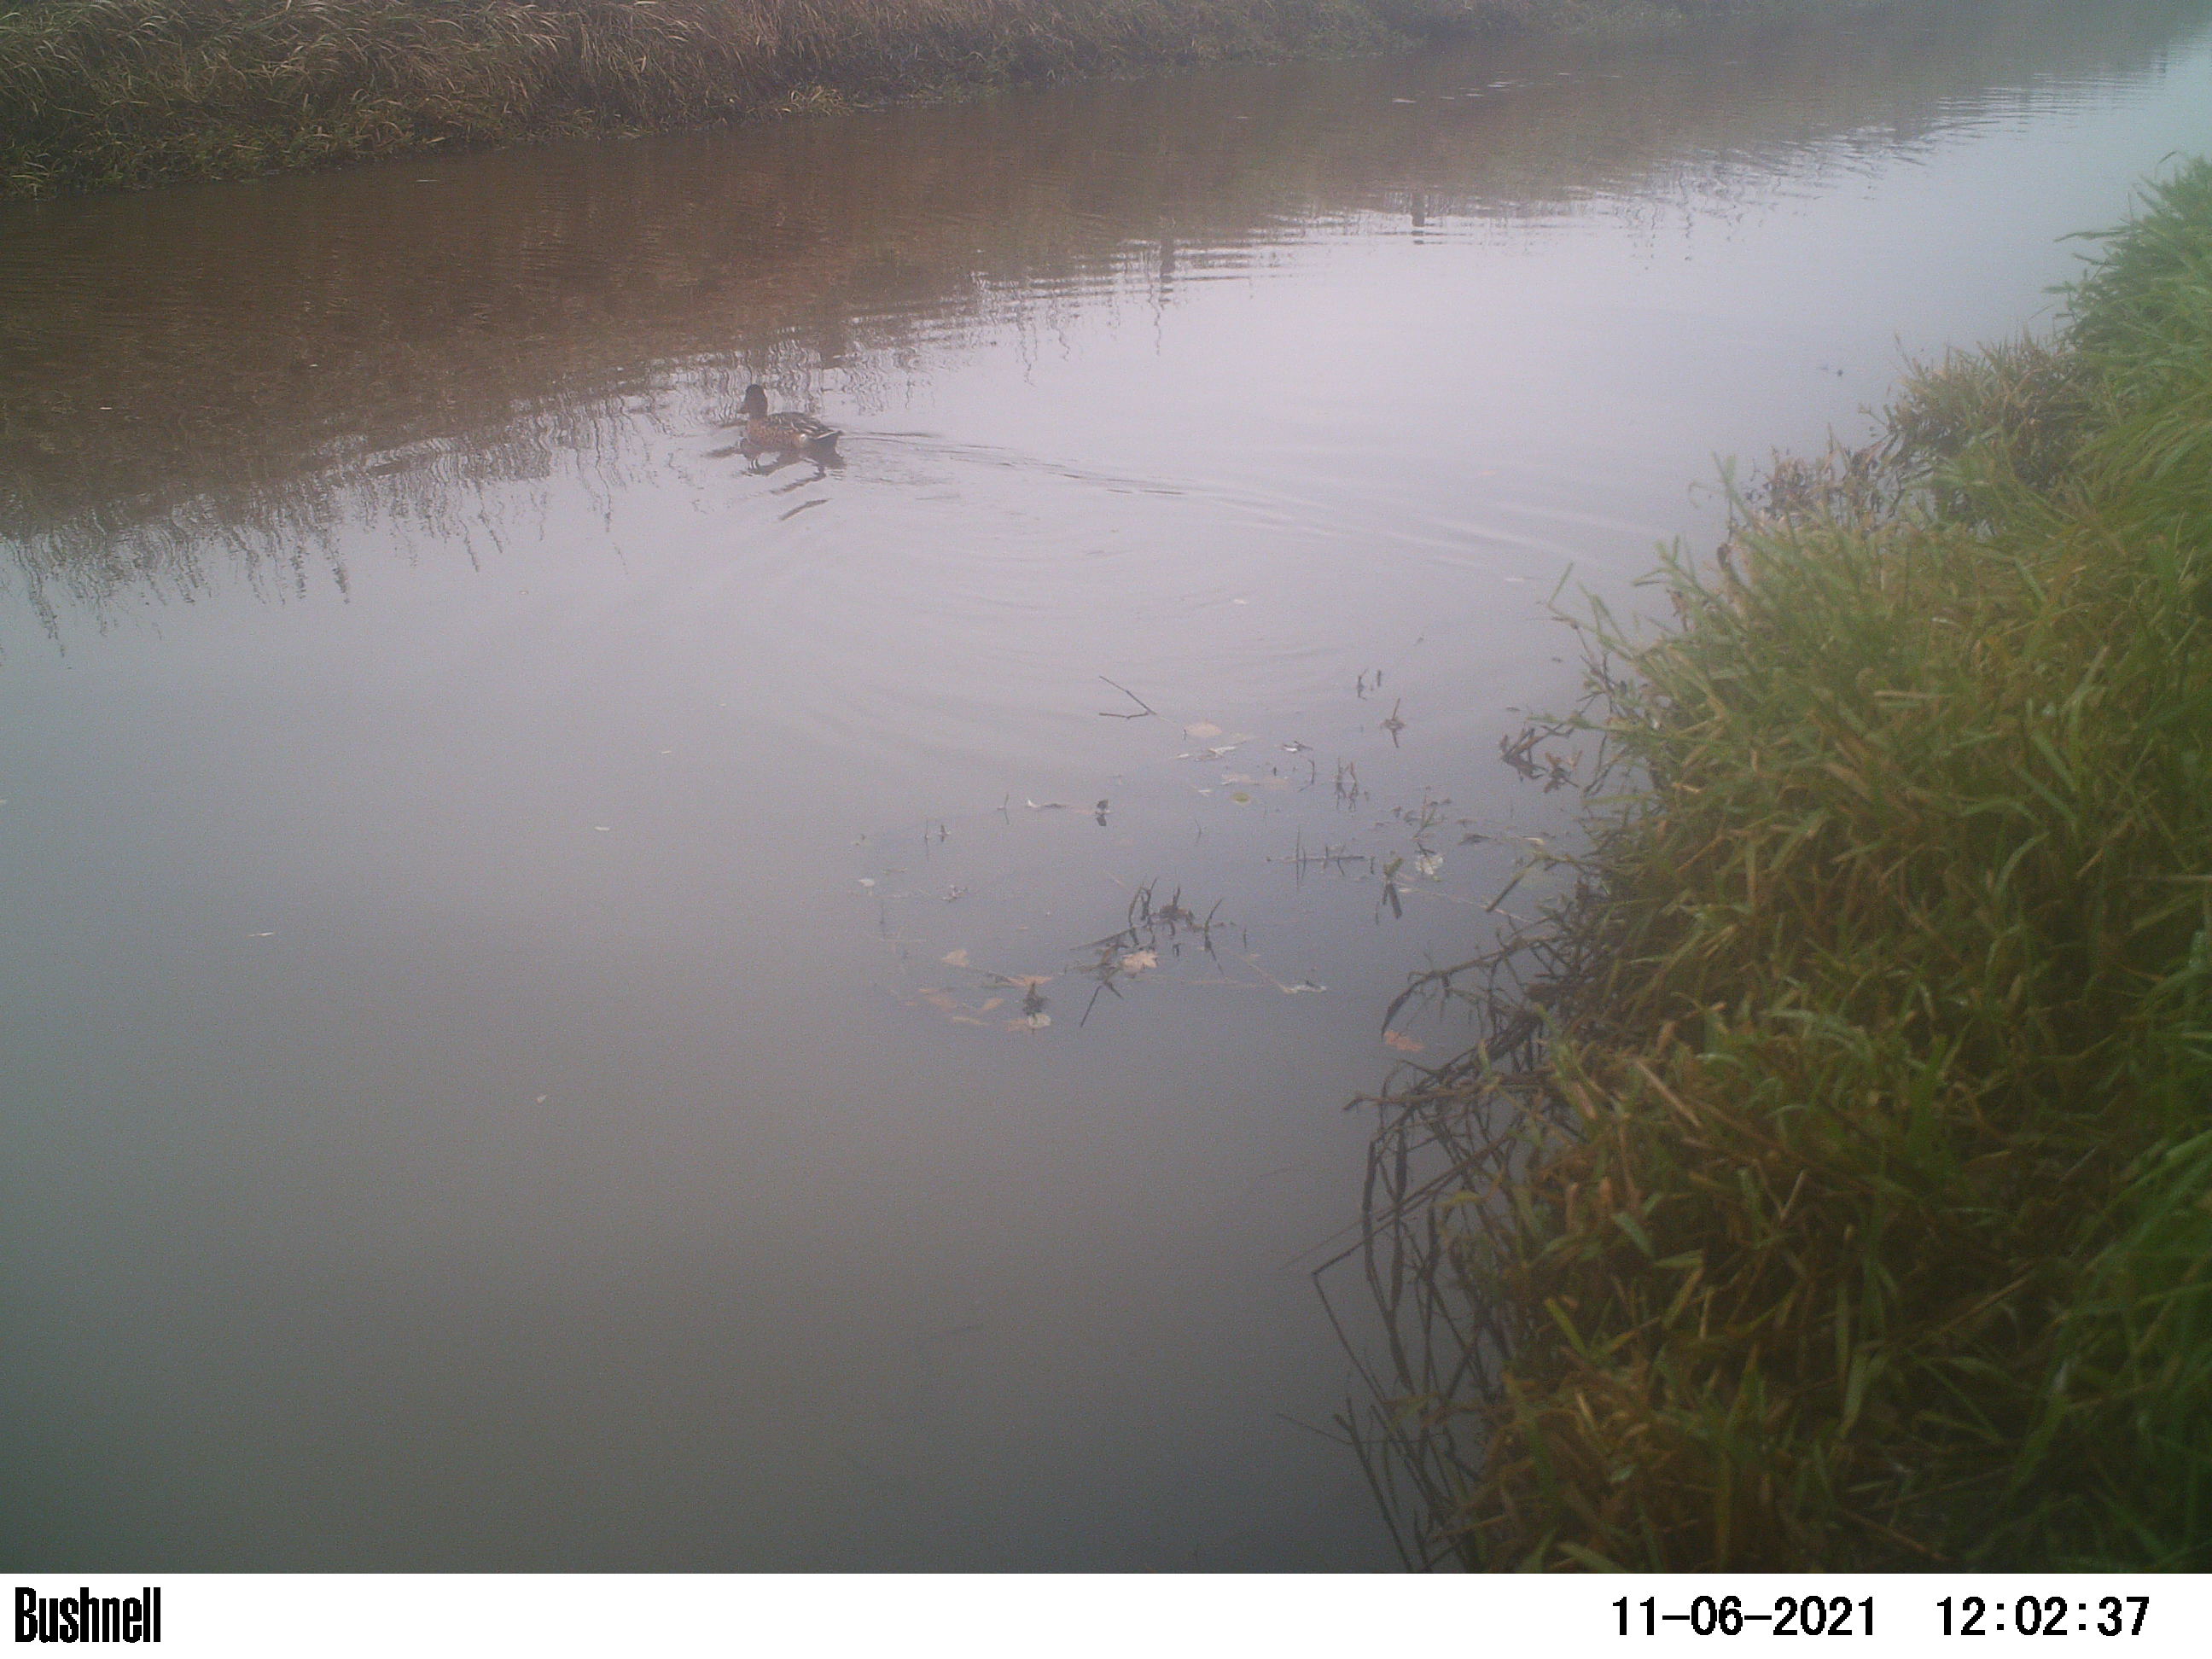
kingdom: Animalia
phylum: Chordata
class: Aves
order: Anseriformes
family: Anatidae
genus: Anas
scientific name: Anas
